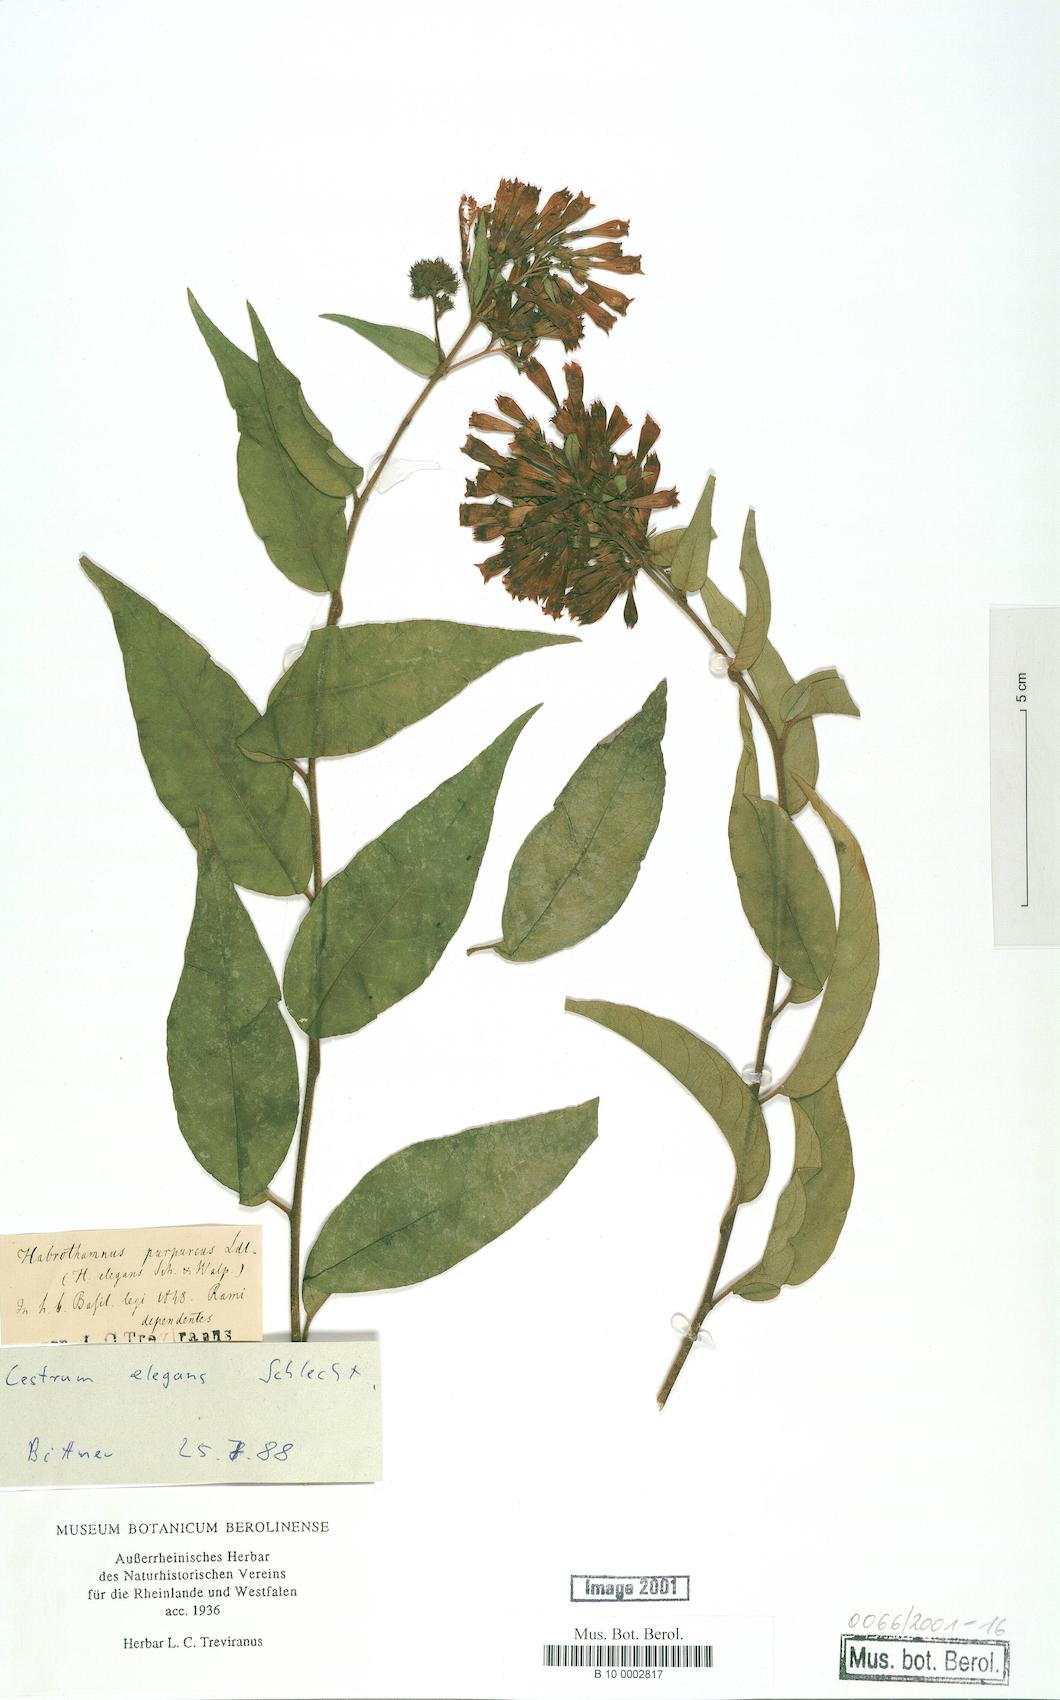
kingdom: Plantae
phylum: Tracheophyta
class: Magnoliopsida
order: Solanales
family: Solanaceae
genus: Cestrum
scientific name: Cestrum elegans
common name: Crimson cestrum
